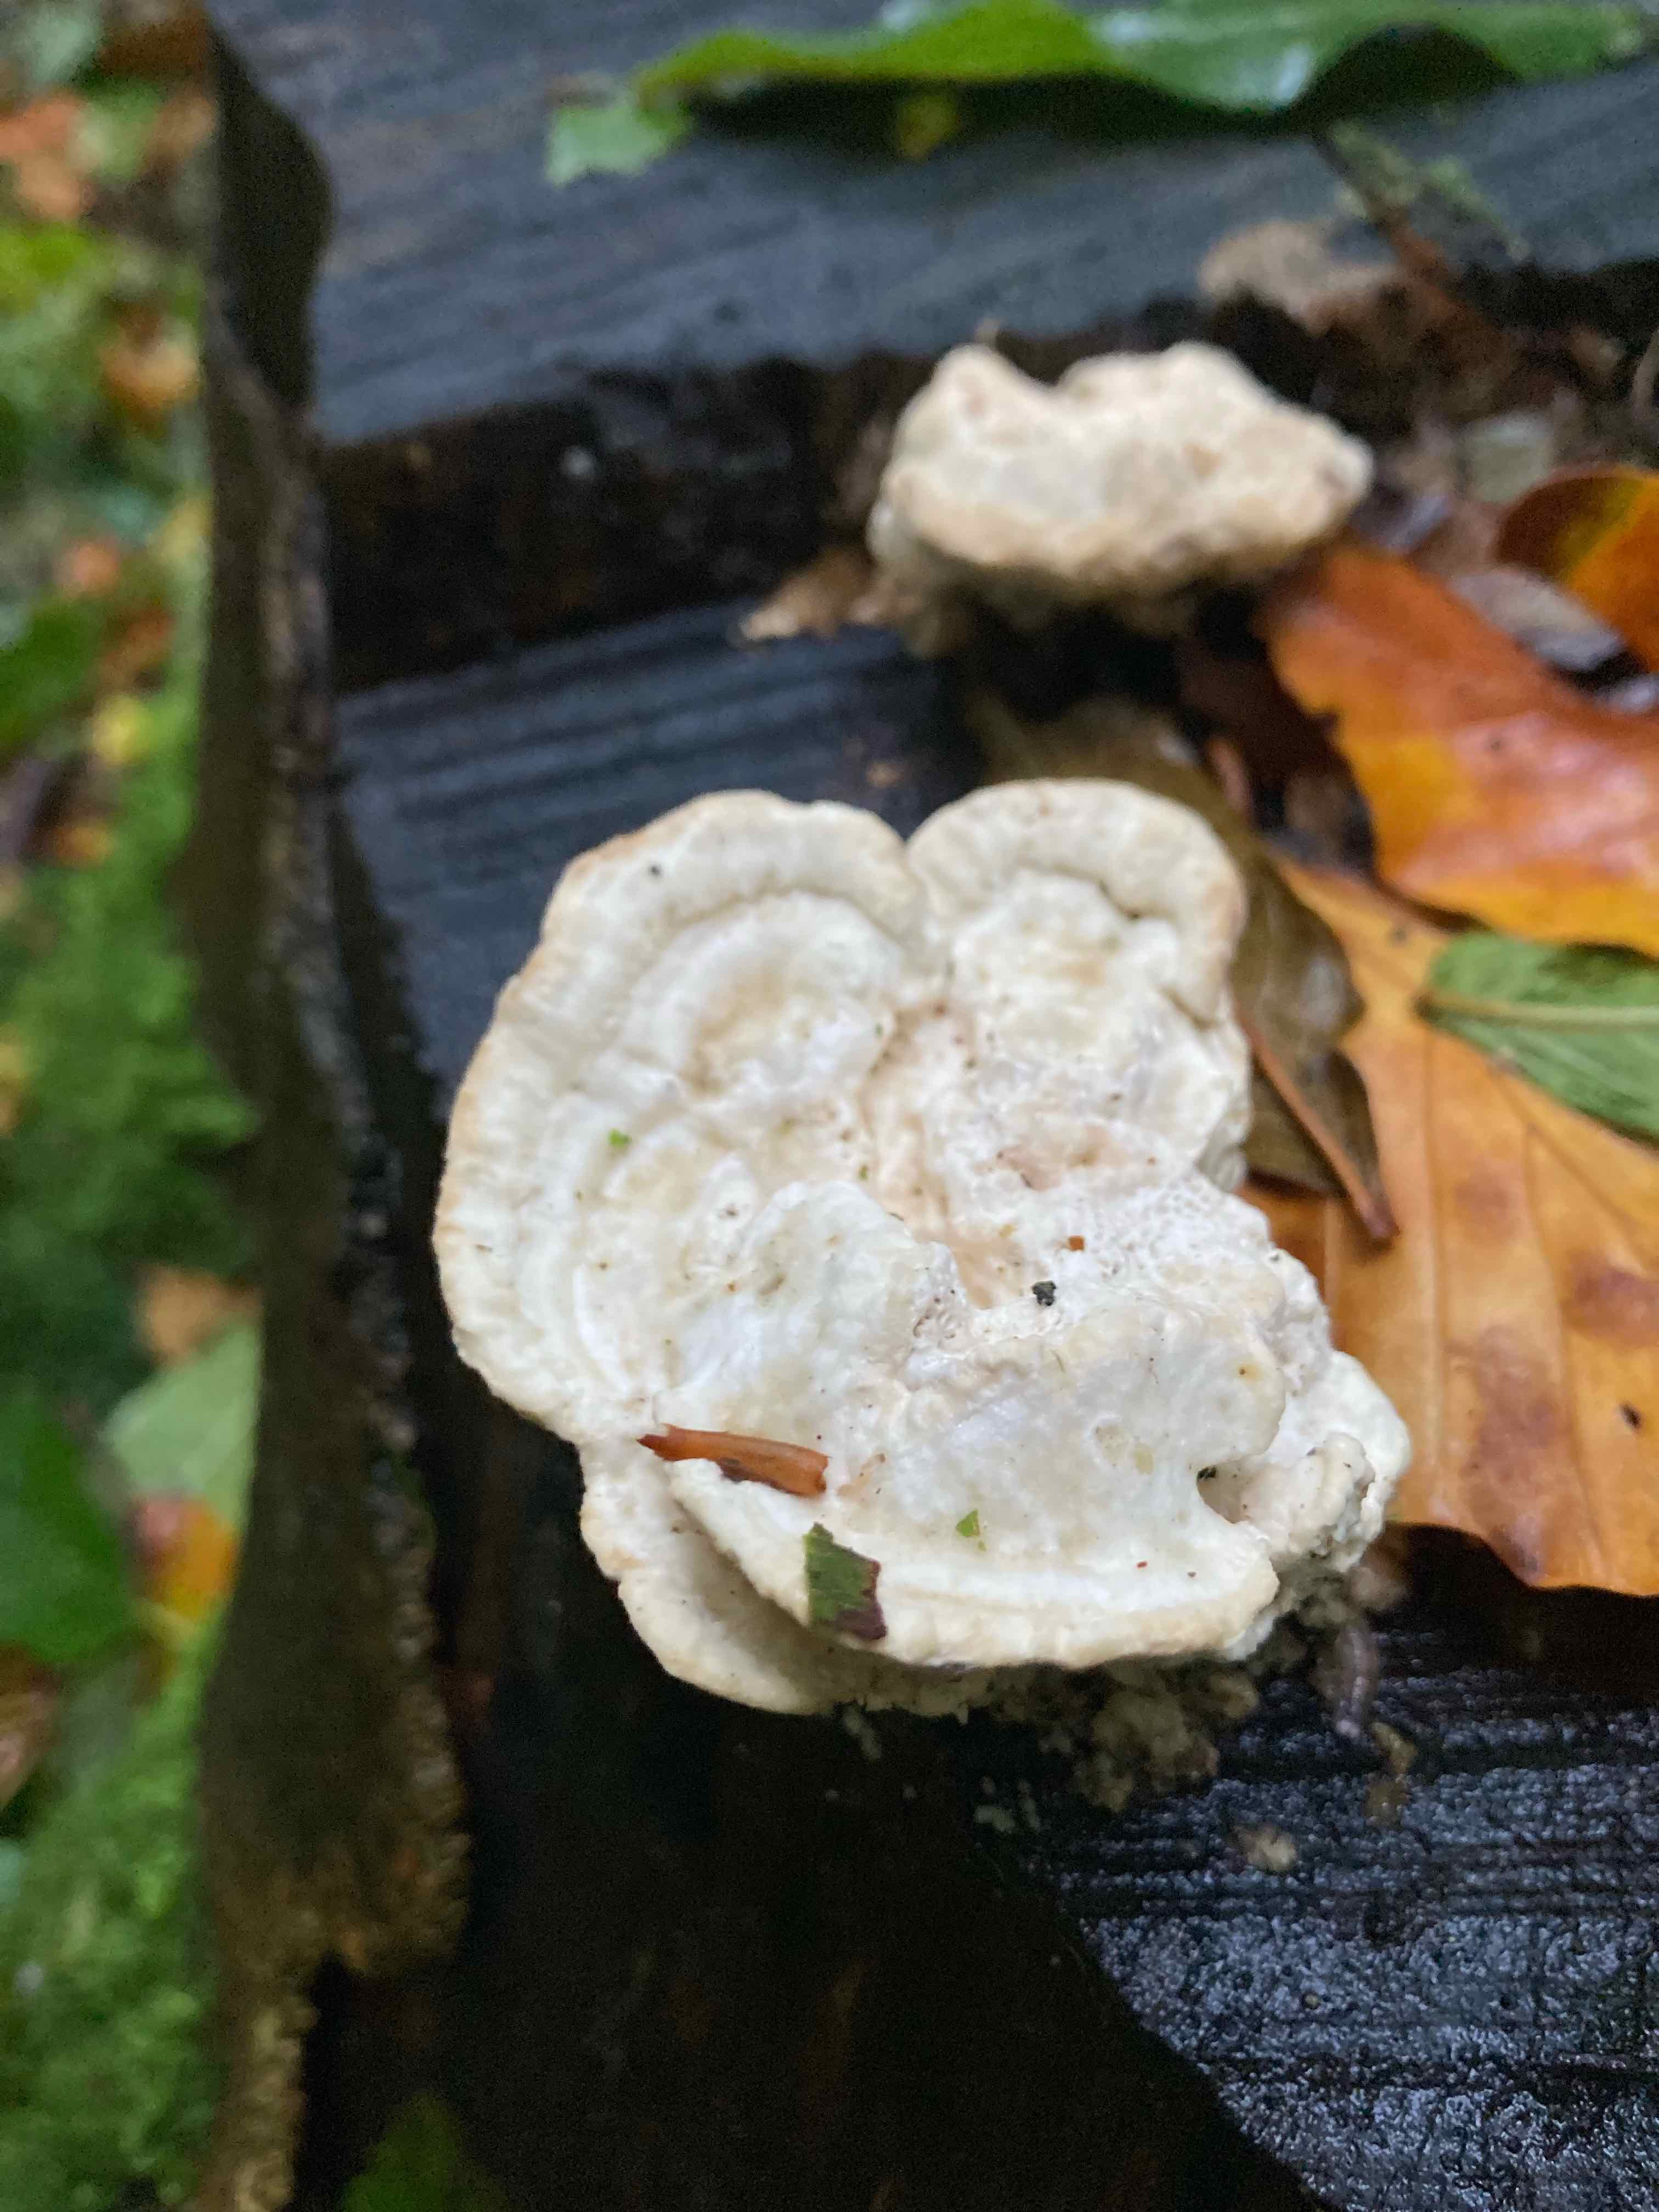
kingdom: Fungi
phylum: Basidiomycota
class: Agaricomycetes
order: Polyporales
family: Polyporaceae
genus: Trametes
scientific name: Trametes gibbosa
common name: puklet læderporesvamp
